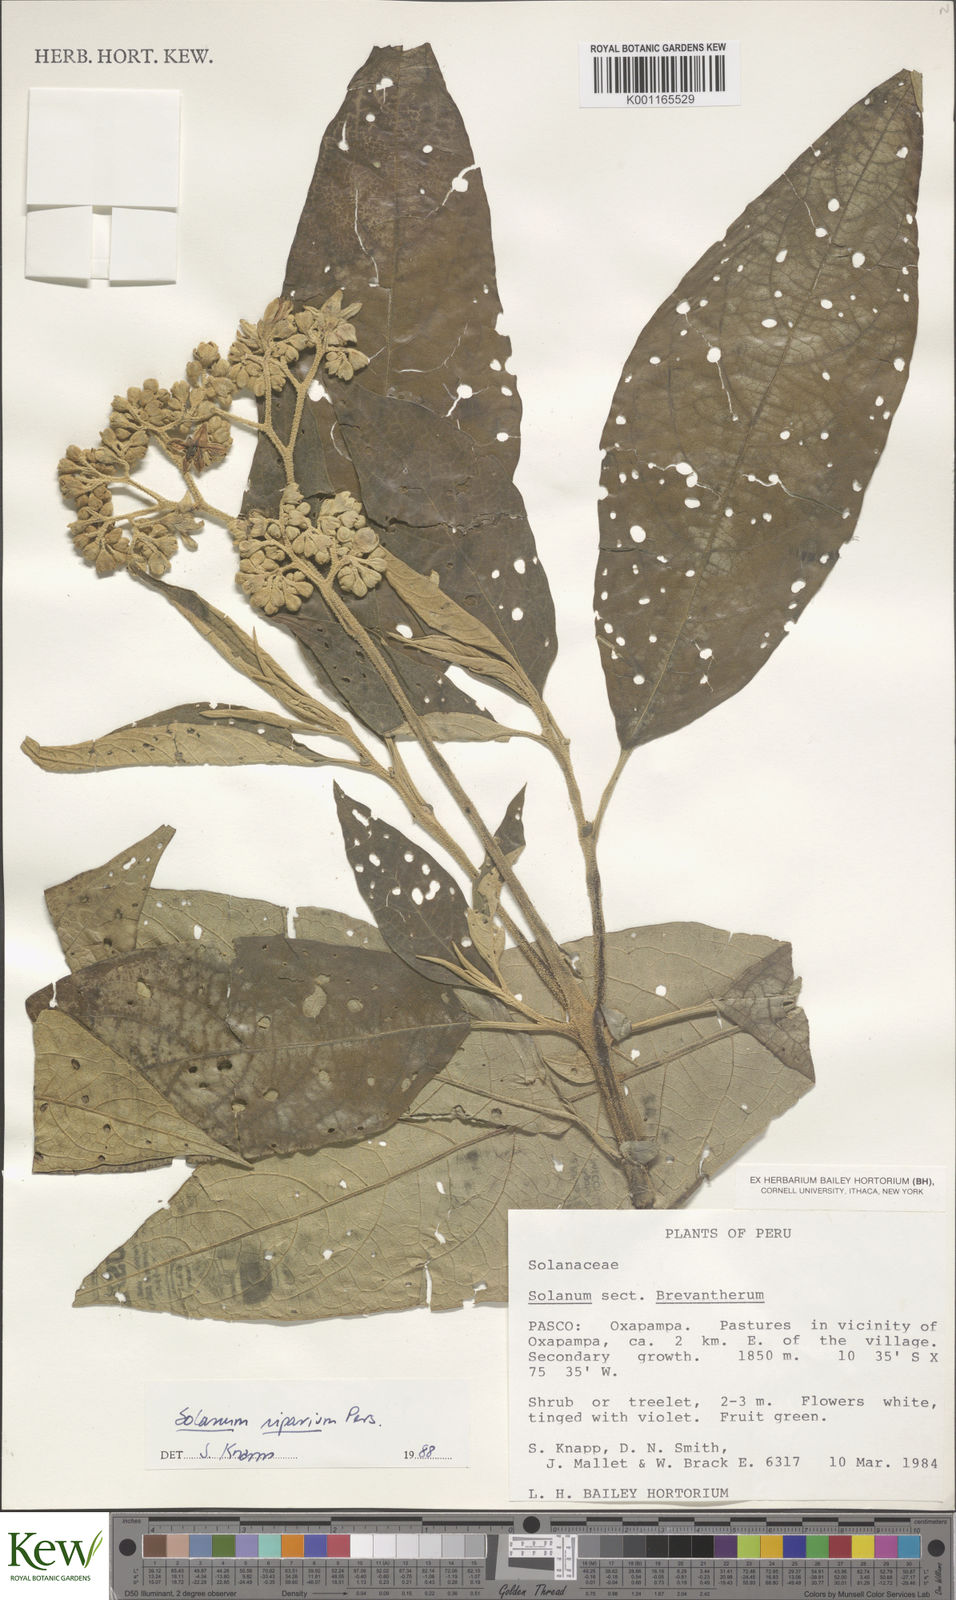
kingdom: Plantae
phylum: Tracheophyta
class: Magnoliopsida
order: Solanales
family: Solanaceae
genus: Solanum
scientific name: Solanum riparium
